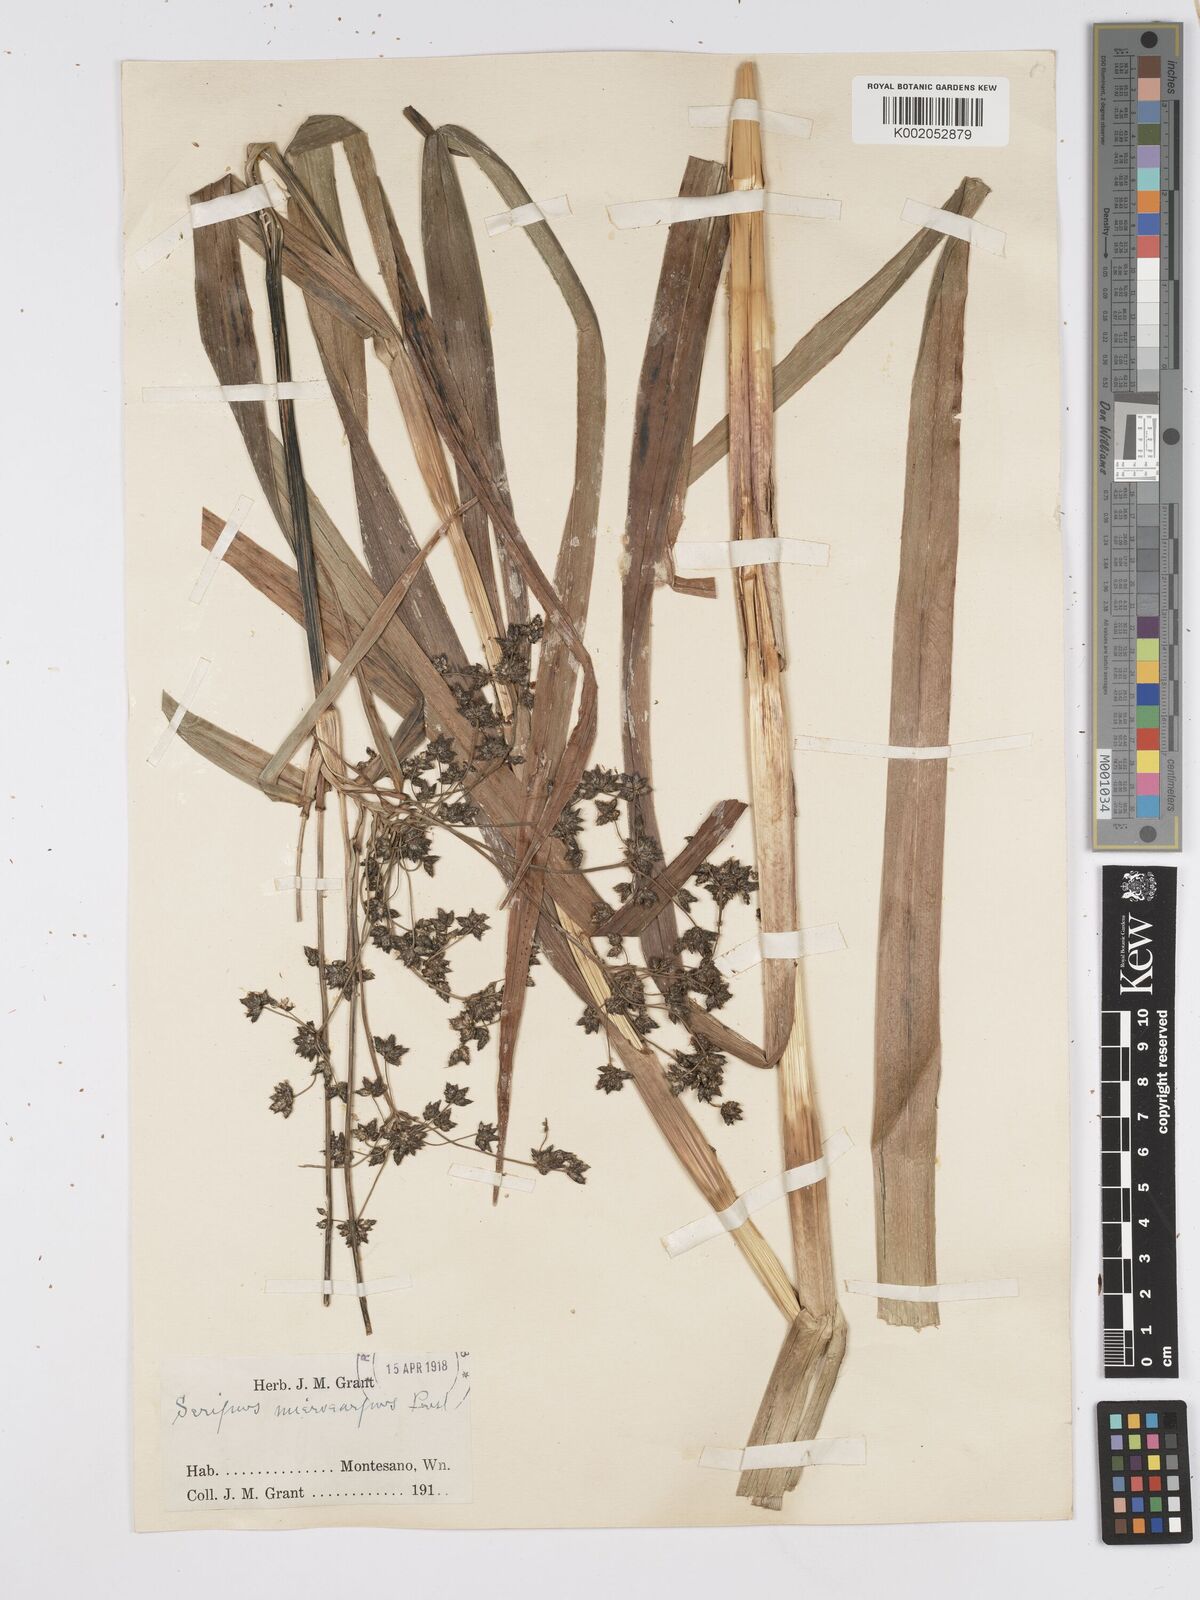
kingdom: Plantae
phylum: Tracheophyta
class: Liliopsida
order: Poales
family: Cyperaceae
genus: Scirpus
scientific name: Scirpus microcarpus
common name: Panicled bulrush
